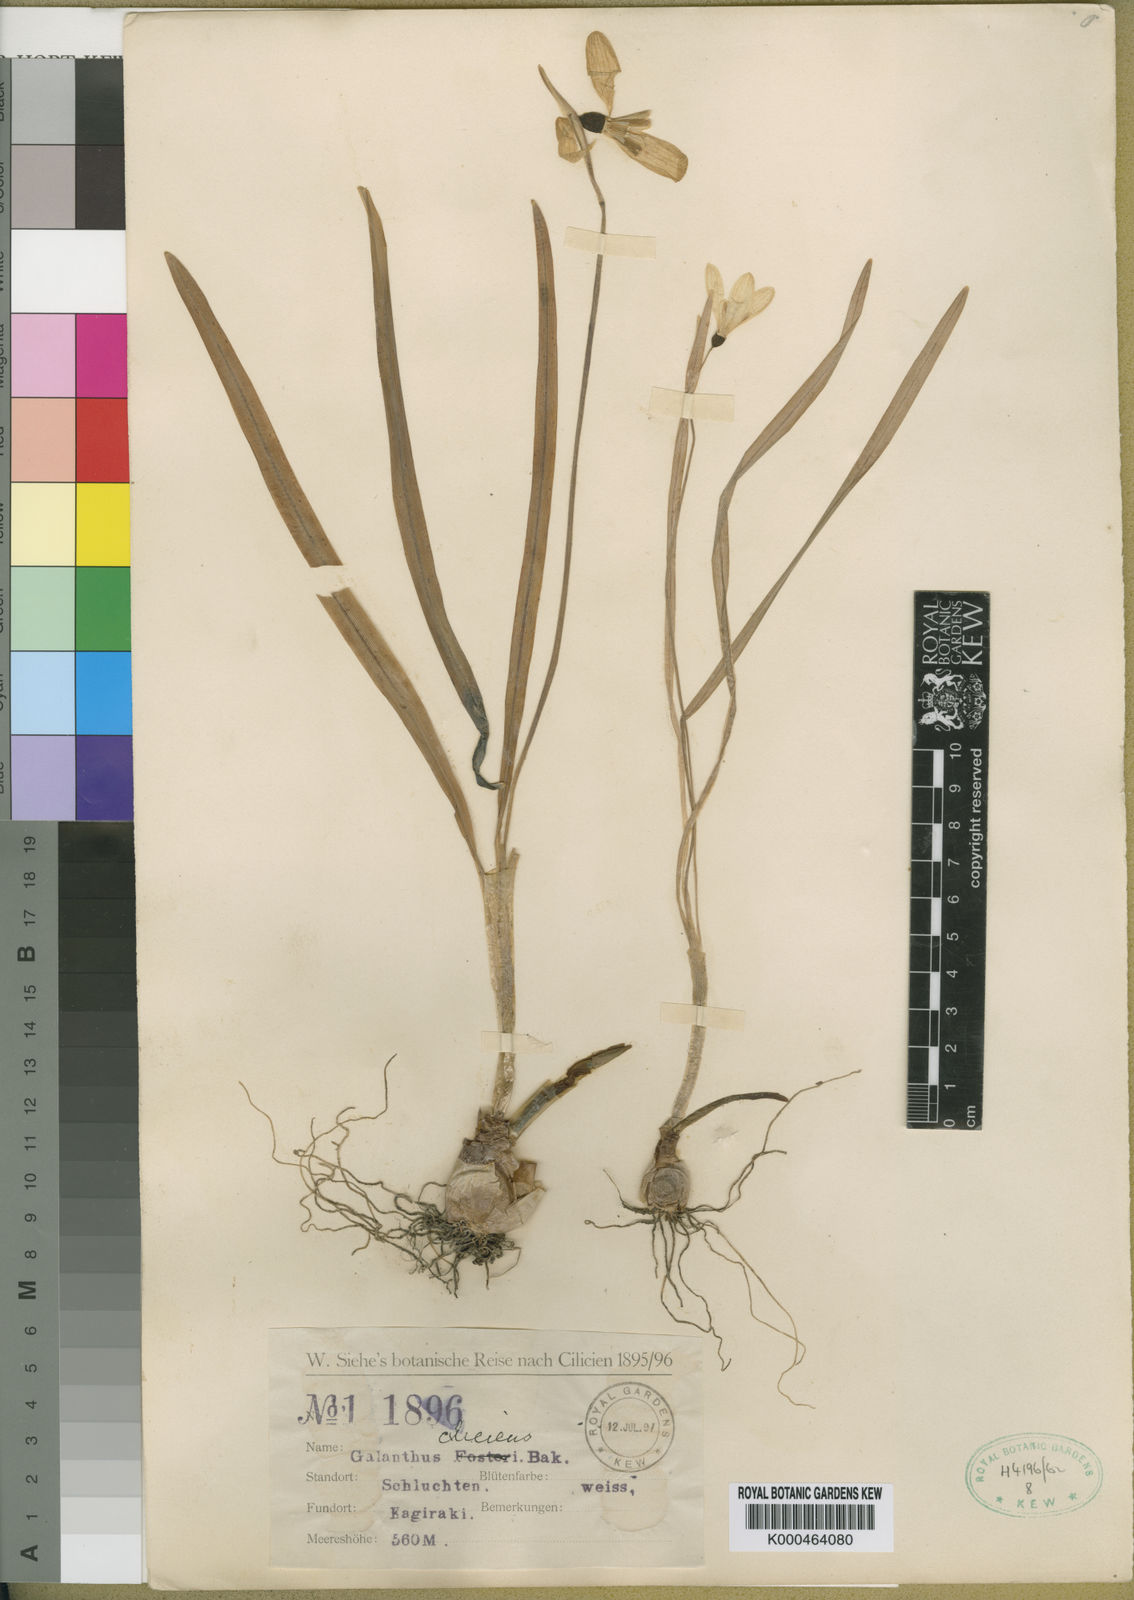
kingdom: Plantae
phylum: Tracheophyta
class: Liliopsida
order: Asparagales
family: Amaryllidaceae
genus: Galanthus
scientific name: Galanthus cilicicus
